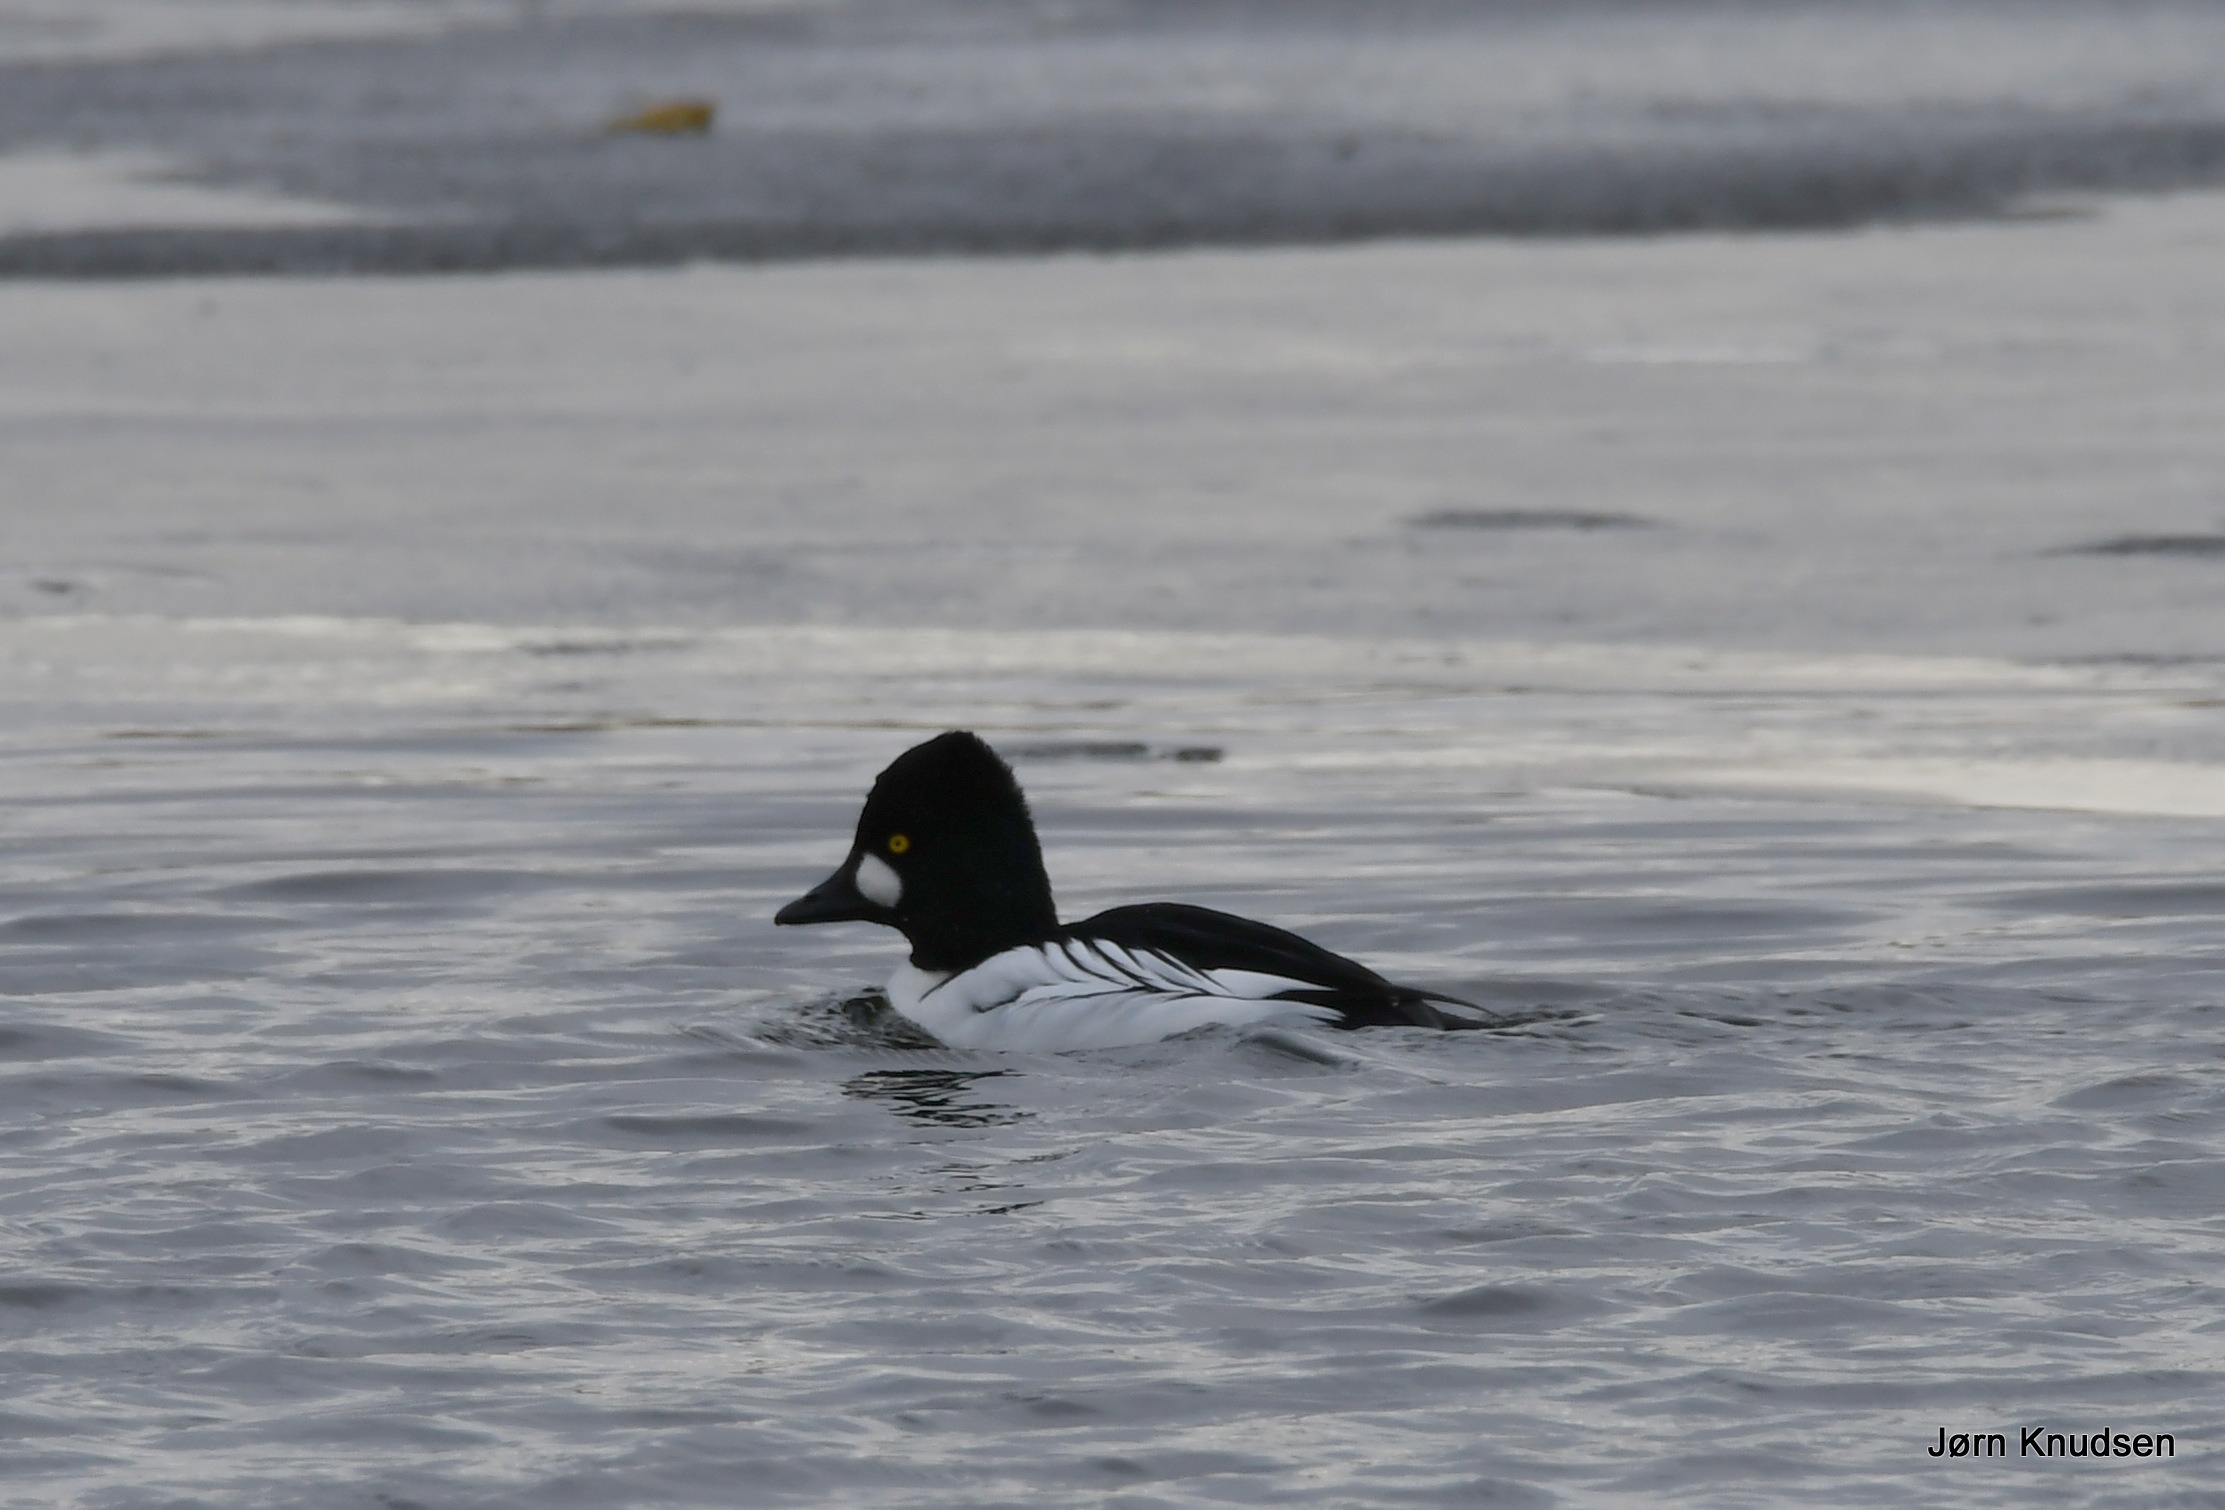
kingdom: Animalia
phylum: Chordata
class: Aves
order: Anseriformes
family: Anatidae
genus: Bucephala
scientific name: Bucephala clangula
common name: Hvinand
